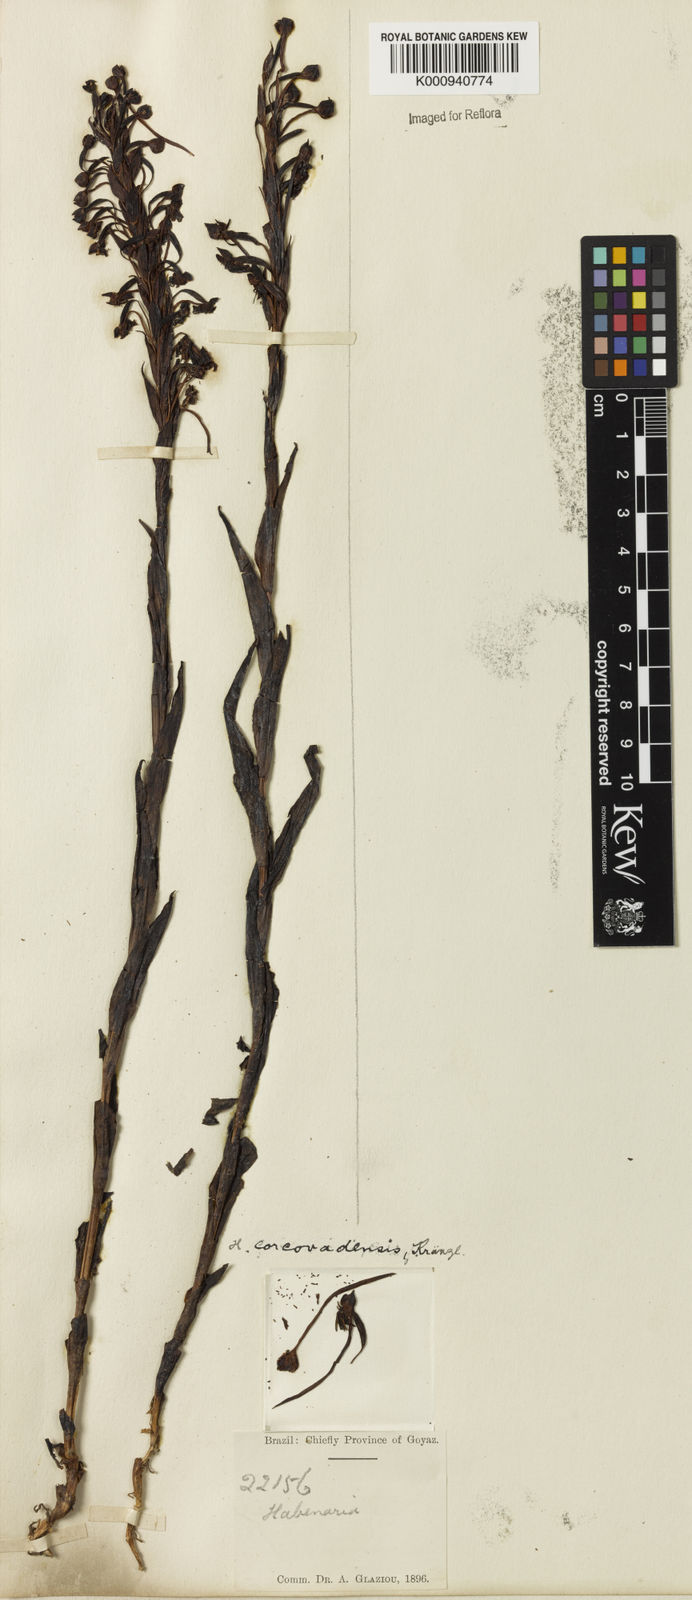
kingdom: Plantae
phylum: Tracheophyta
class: Liliopsida
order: Asparagales
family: Orchidaceae
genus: Habenaria
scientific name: Habenaria rodeiensis
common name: Bog orchid
